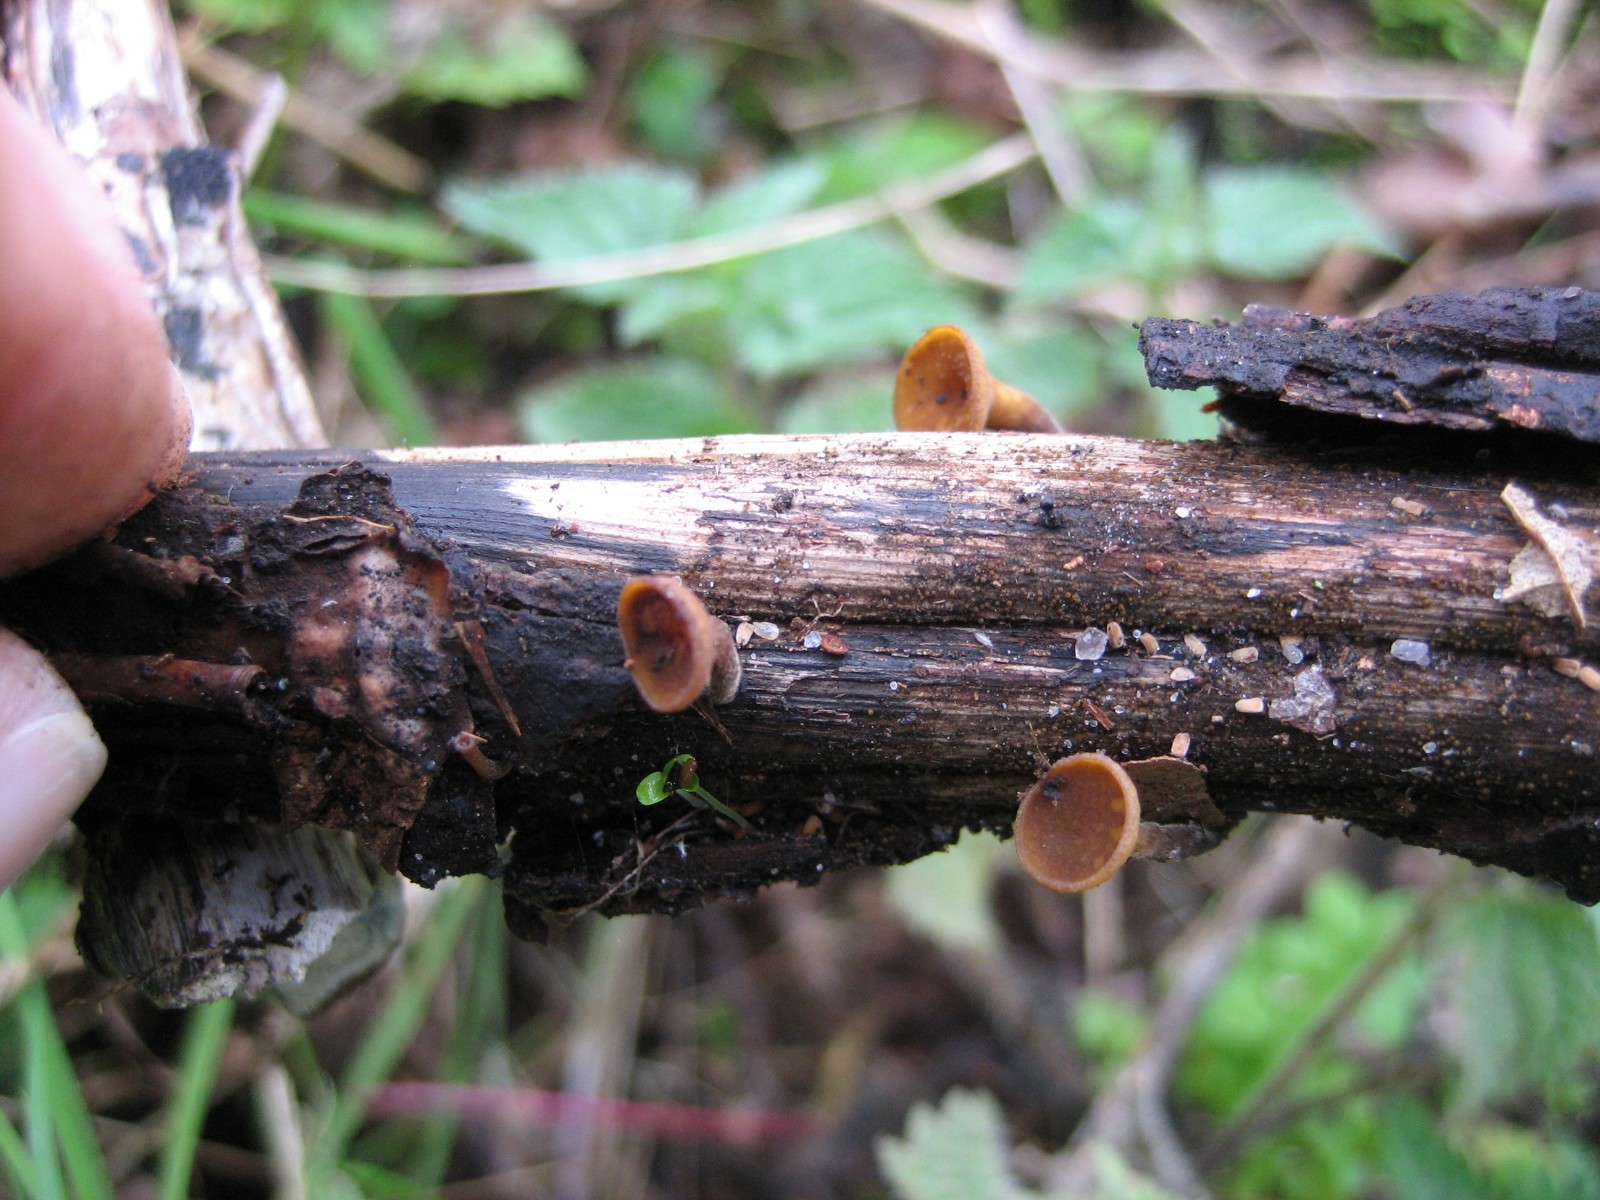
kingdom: Fungi
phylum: Ascomycota
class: Leotiomycetes
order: Helotiales
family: Rutstroemiaceae
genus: Rutstroemia
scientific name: Rutstroemia firma
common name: gren-brunskive
